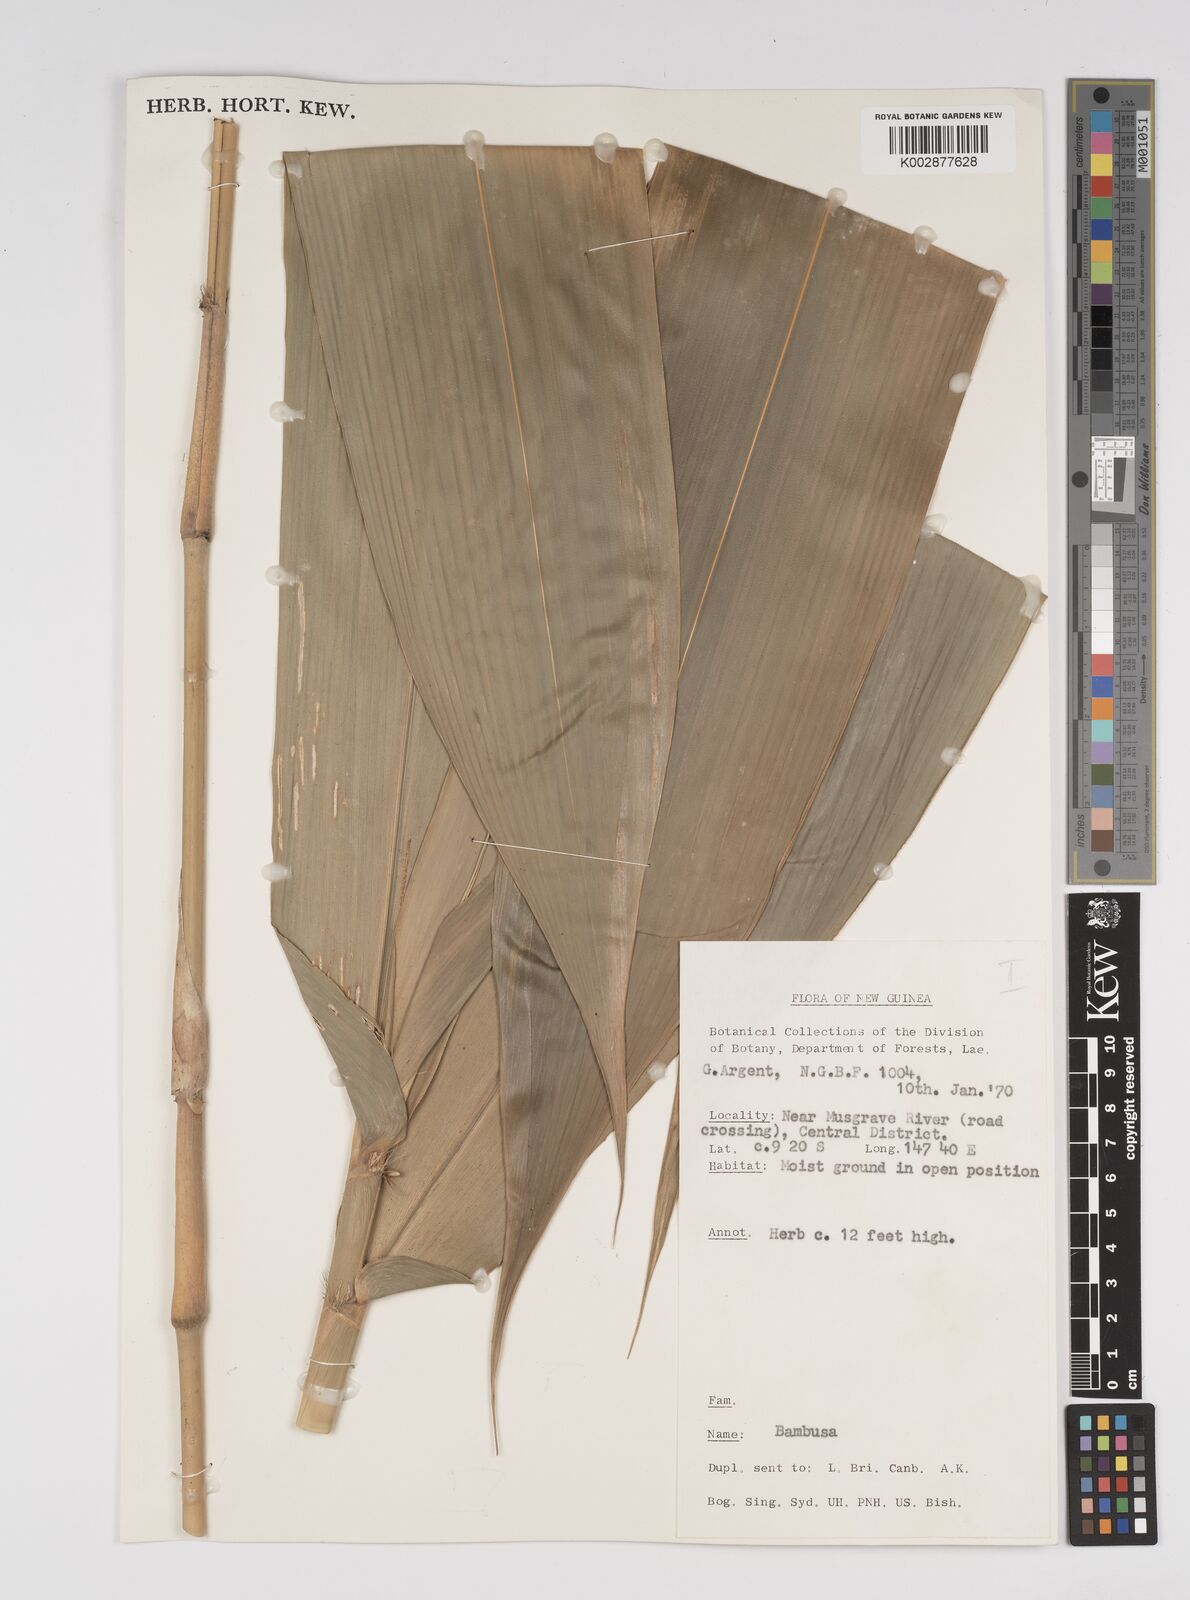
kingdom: Plantae
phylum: Tracheophyta
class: Liliopsida
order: Poales
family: Poaceae
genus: Dendrocalamus
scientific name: Dendrocalamus strictus
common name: Male bamboo
